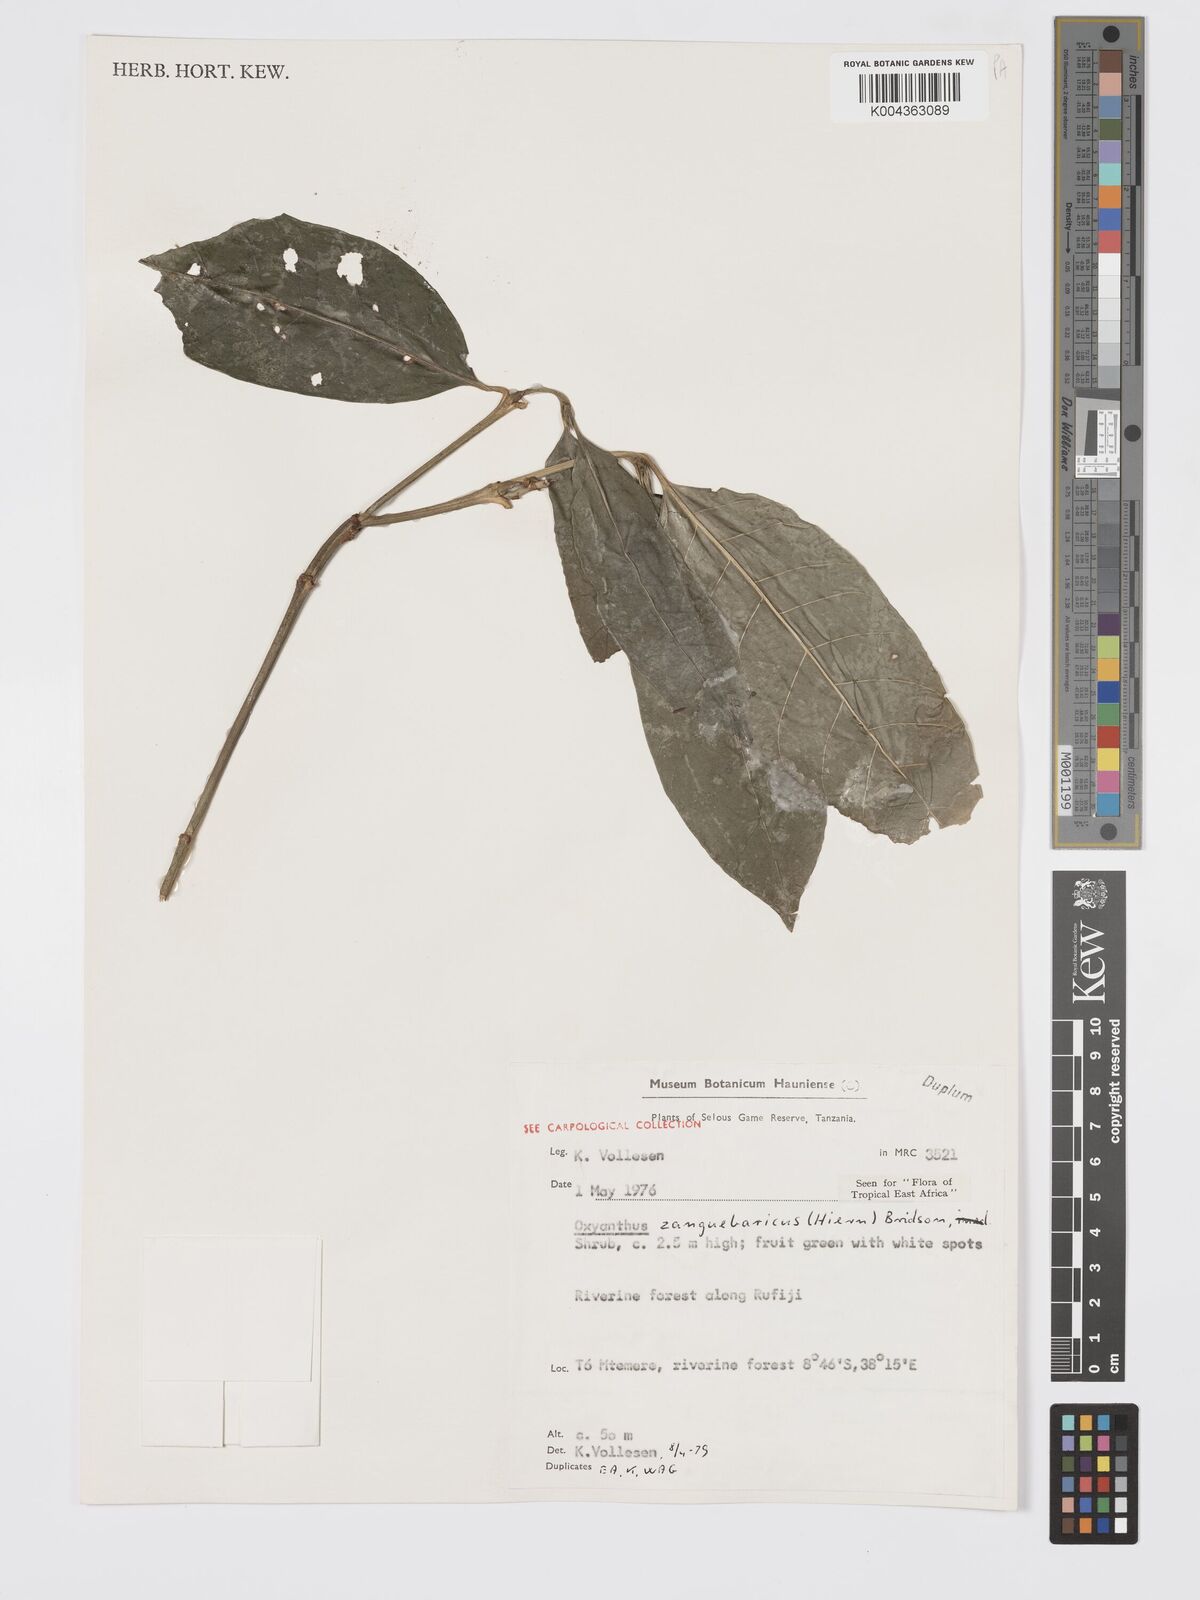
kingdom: Plantae
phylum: Tracheophyta
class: Magnoliopsida
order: Gentianales
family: Rubiaceae
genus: Oxyanthus
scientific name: Oxyanthus zanguebaricus
